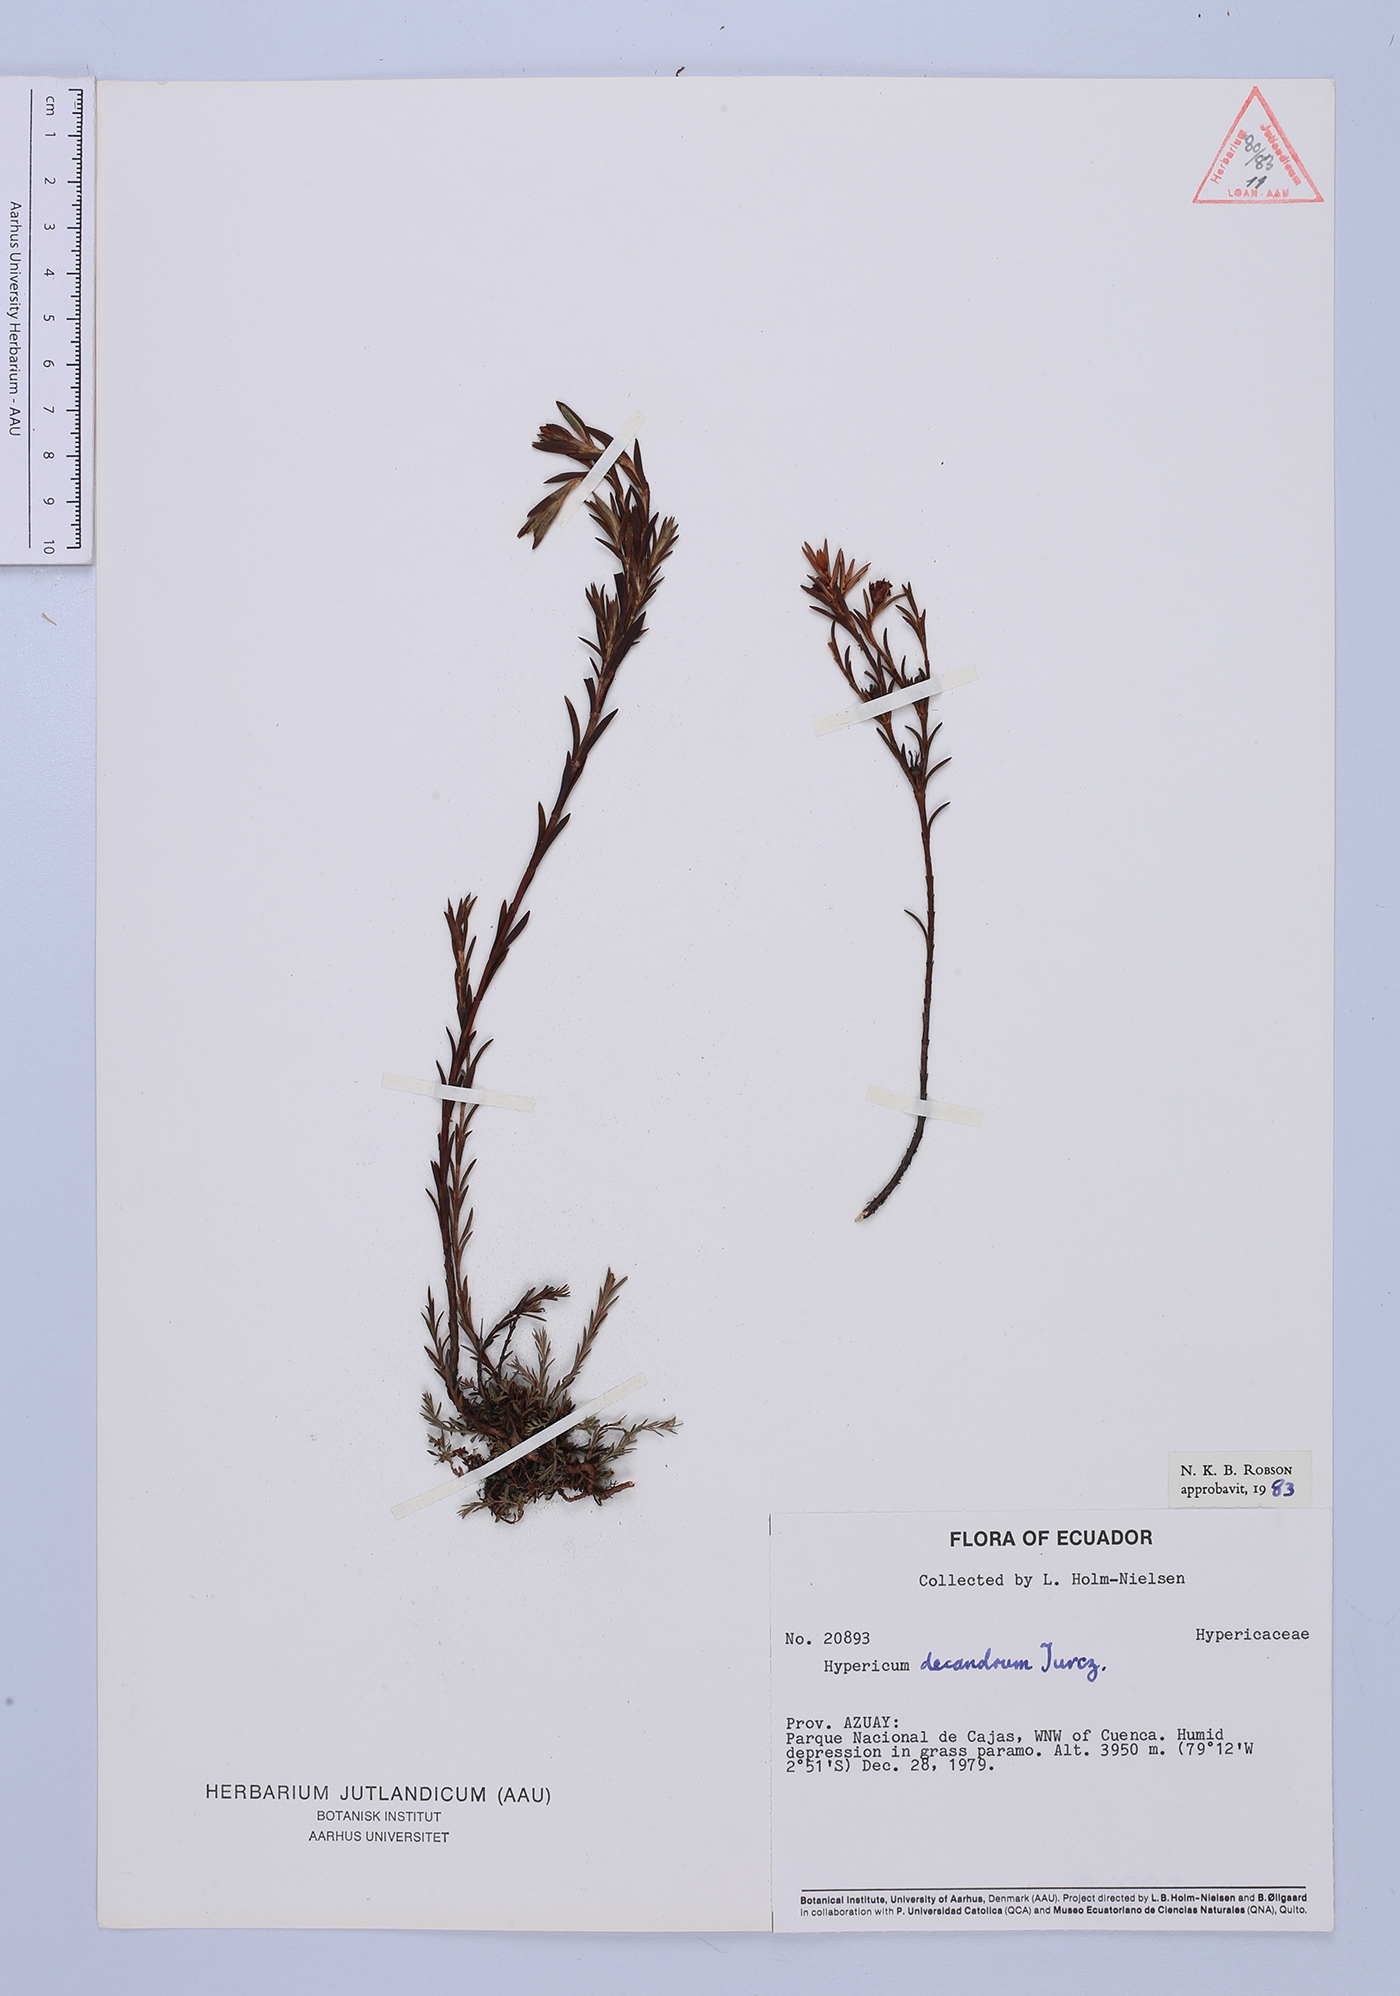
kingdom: Plantae
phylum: Tracheophyta
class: Magnoliopsida
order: Malpighiales
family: Hypericaceae
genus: Hypericum
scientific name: Hypericum decandrum
